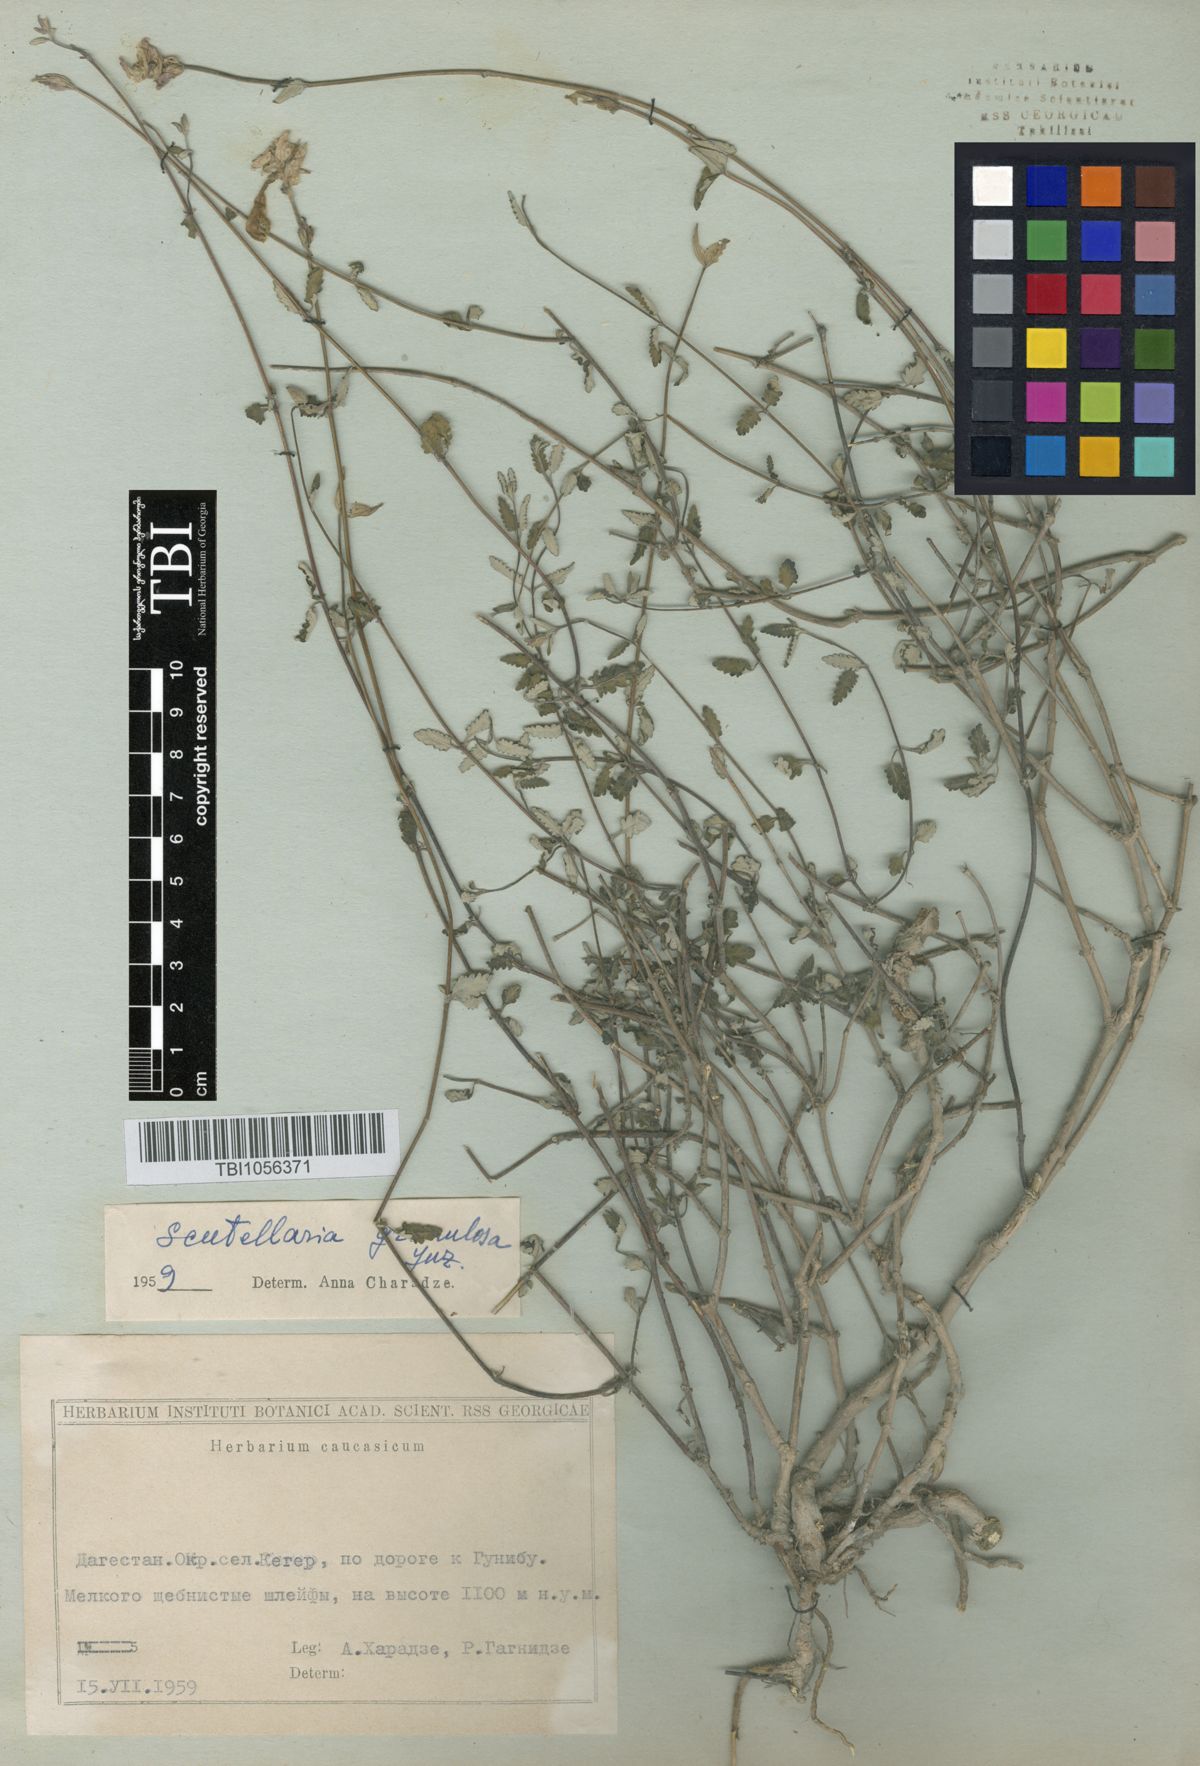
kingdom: Plantae
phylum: Tracheophyta
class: Magnoliopsida
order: Lamiales
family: Lamiaceae
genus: Scutellaria
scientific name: Scutellaria granulosa
